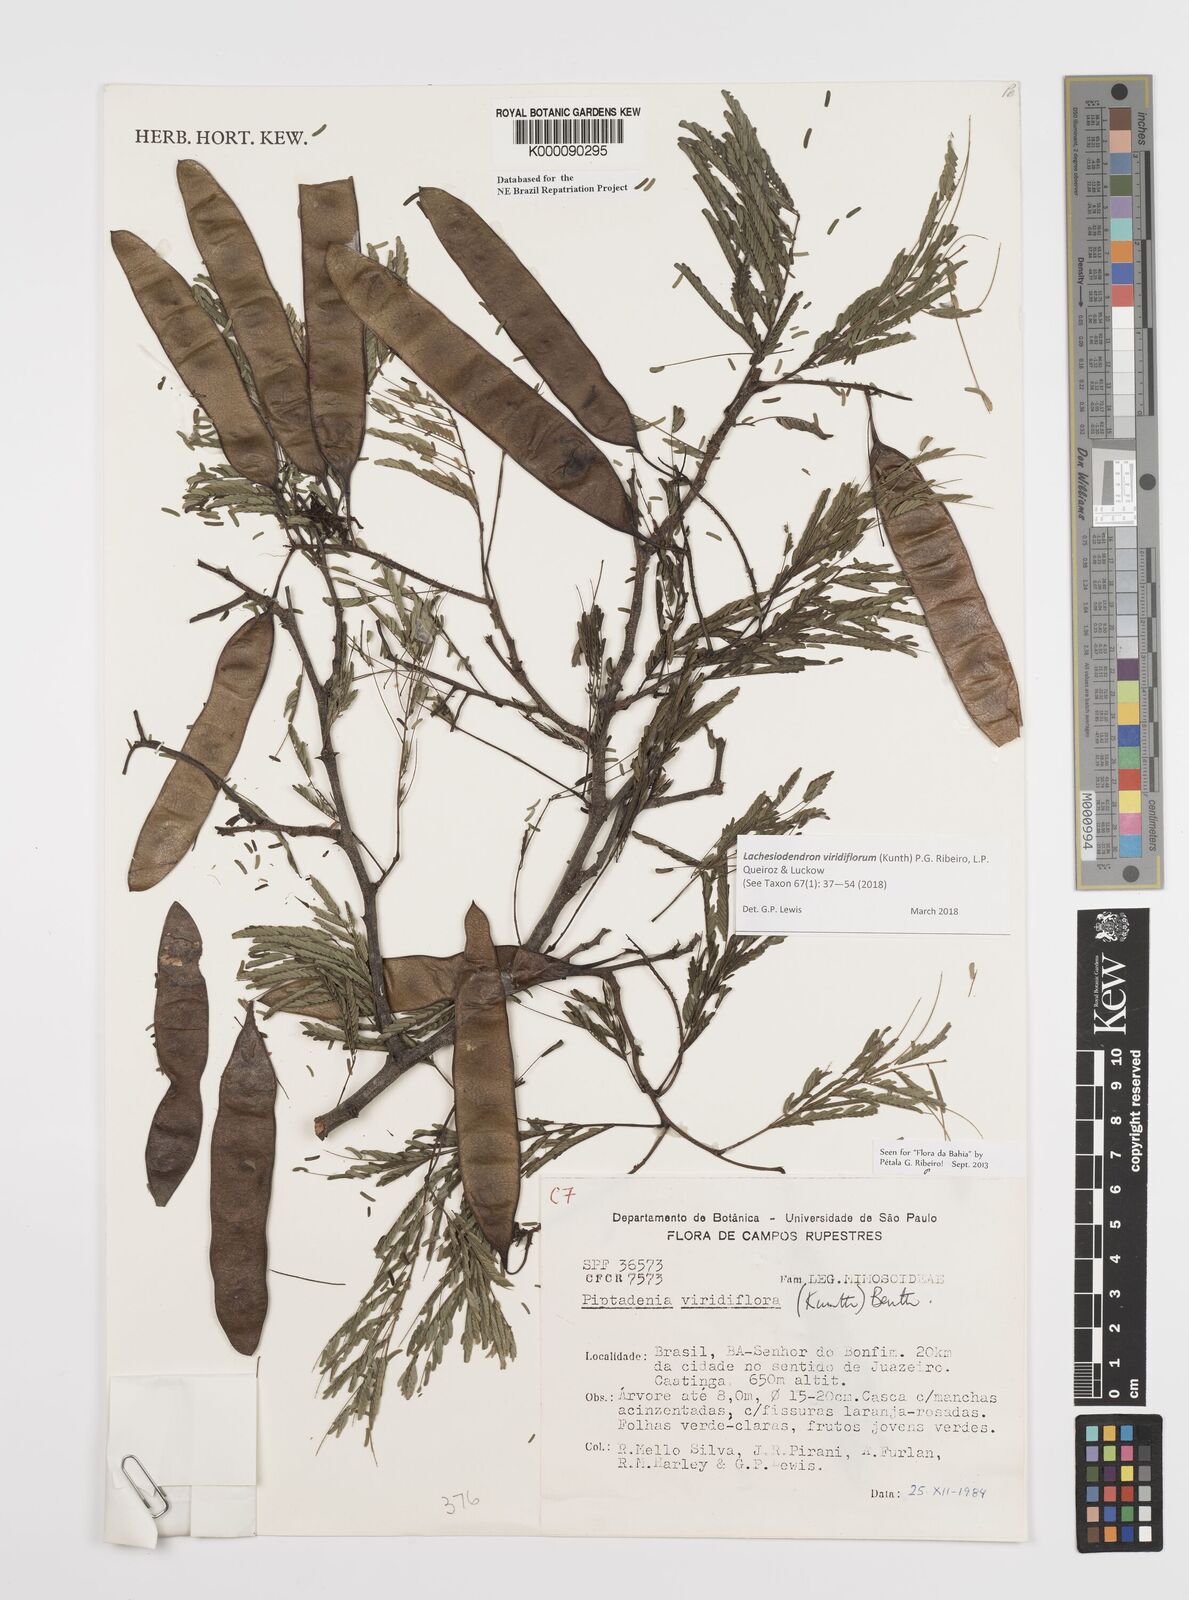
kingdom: Plantae
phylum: Tracheophyta
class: Magnoliopsida
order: Fabales
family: Fabaceae
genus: Lachesiodendron
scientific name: Lachesiodendron viridiflorum
